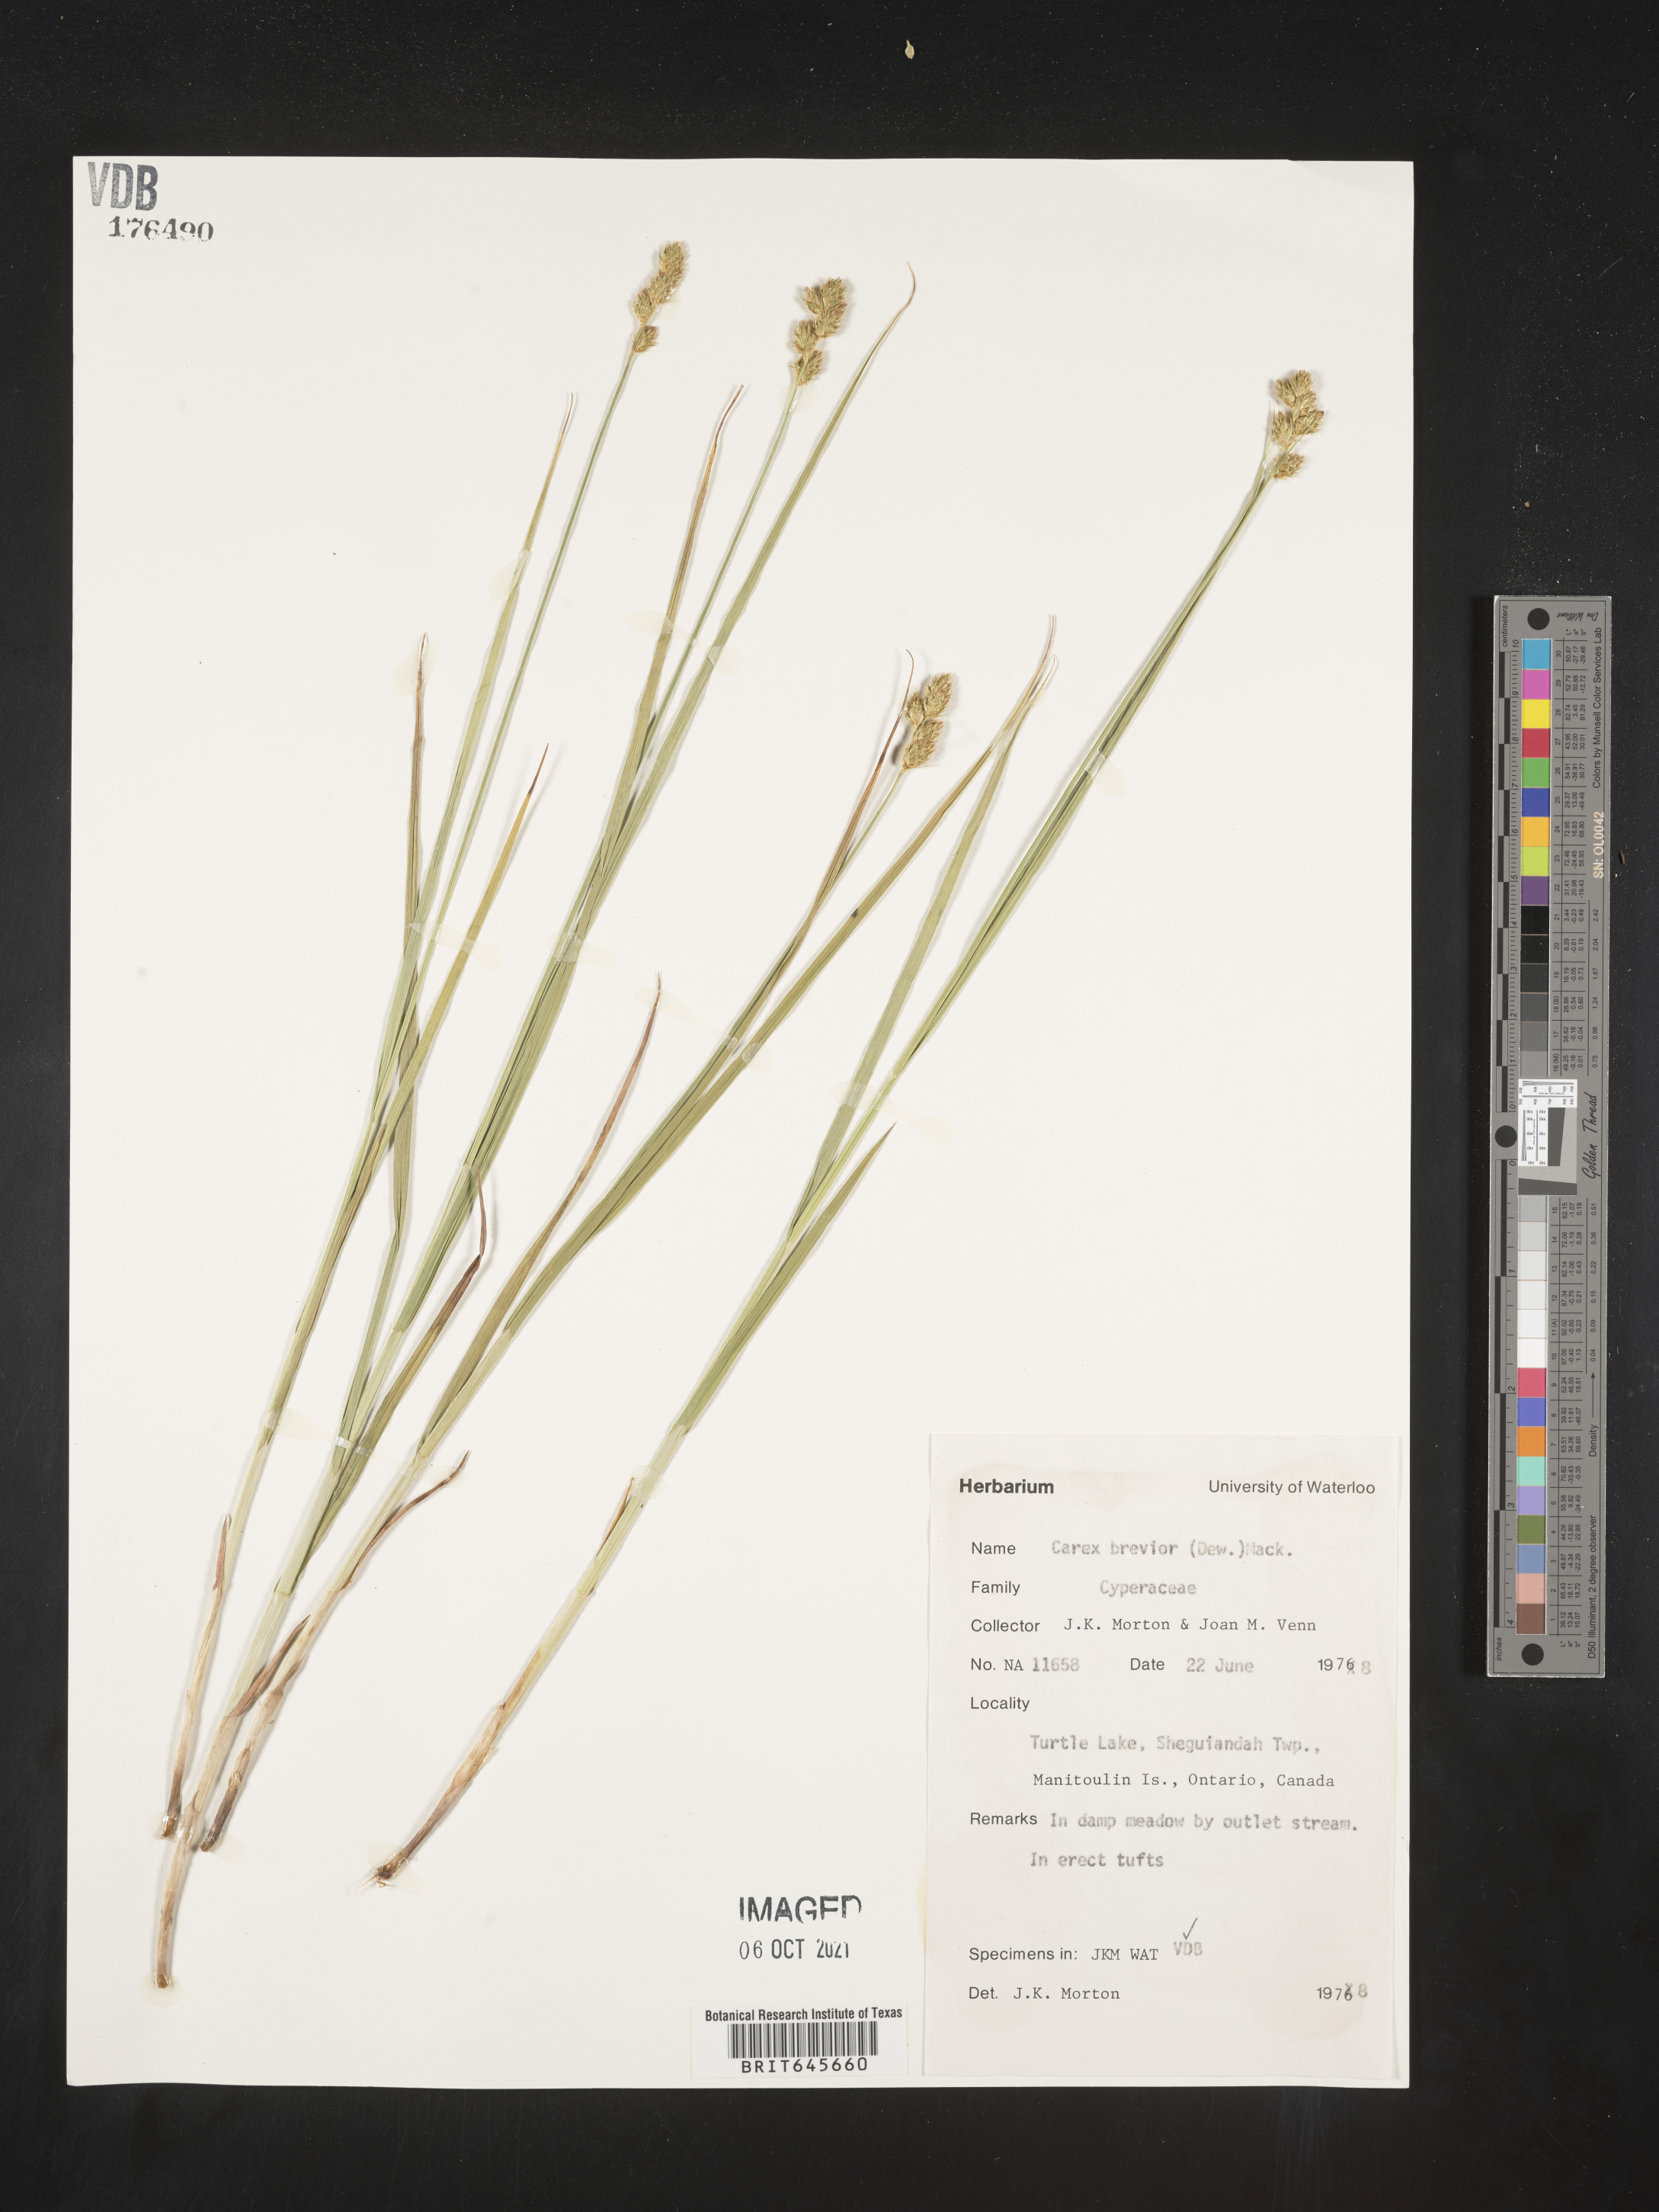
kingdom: Plantae
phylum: Tracheophyta
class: Liliopsida
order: Poales
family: Cyperaceae
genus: Carex
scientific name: Carex brevior
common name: Brevior sedge
